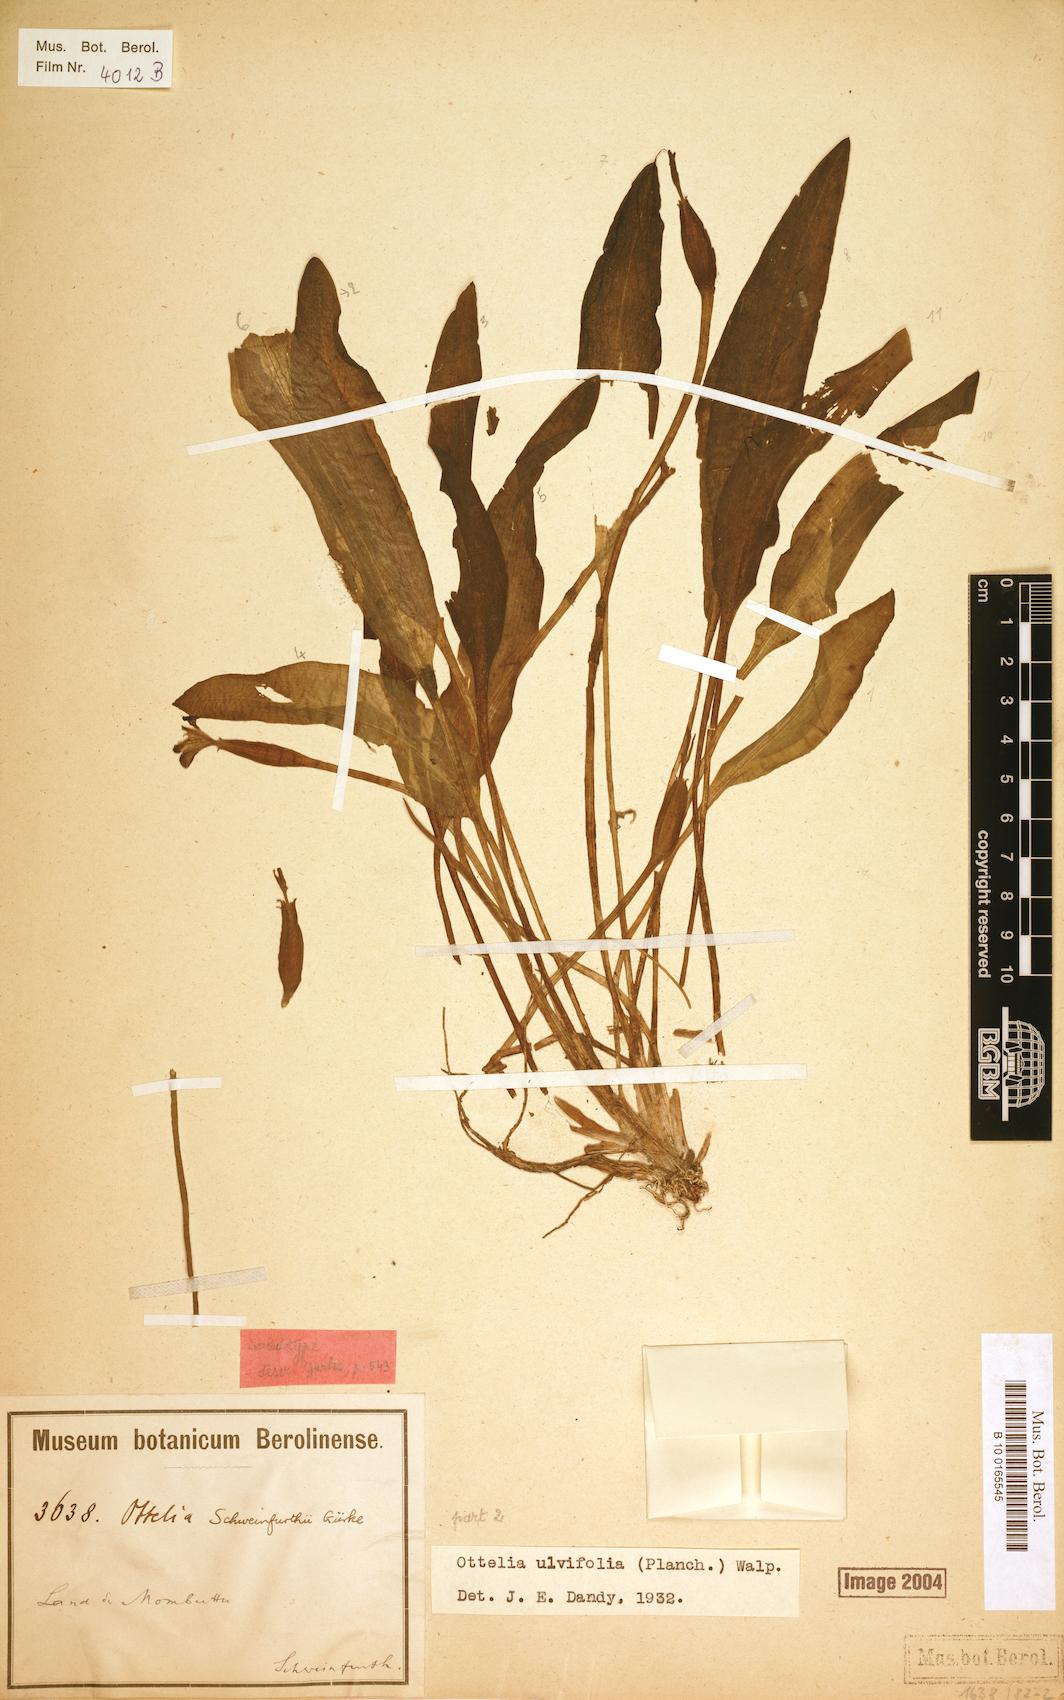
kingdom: Plantae
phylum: Tracheophyta
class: Liliopsida
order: Alismatales
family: Hydrocharitaceae
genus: Ottelia
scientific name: Ottelia ulvifolia
